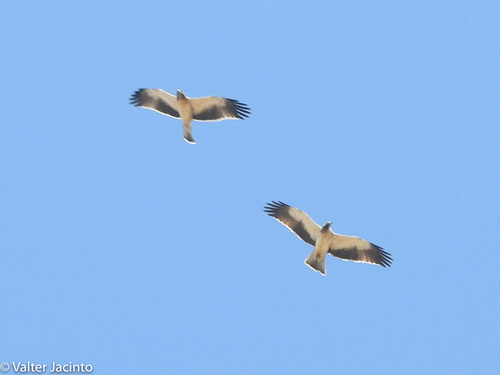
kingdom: Animalia
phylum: Chordata
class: Aves
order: Accipitriformes
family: Accipitridae
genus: Hieraaetus
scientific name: Hieraaetus pennatus
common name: Booted eagle
